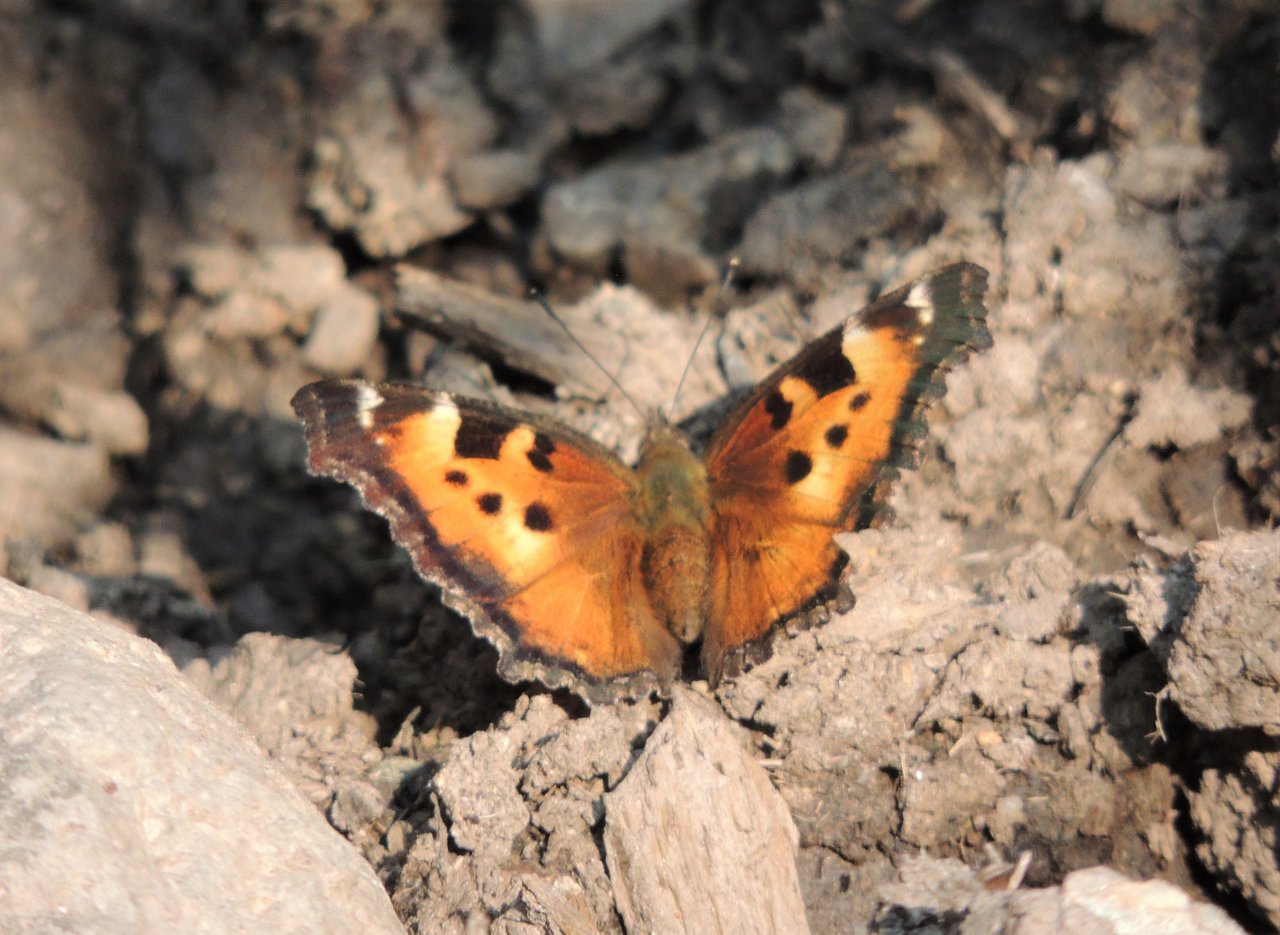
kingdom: Animalia
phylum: Arthropoda
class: Insecta
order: Lepidoptera
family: Nymphalidae
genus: Nymphalis
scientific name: Nymphalis californica
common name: California Tortoiseshell
